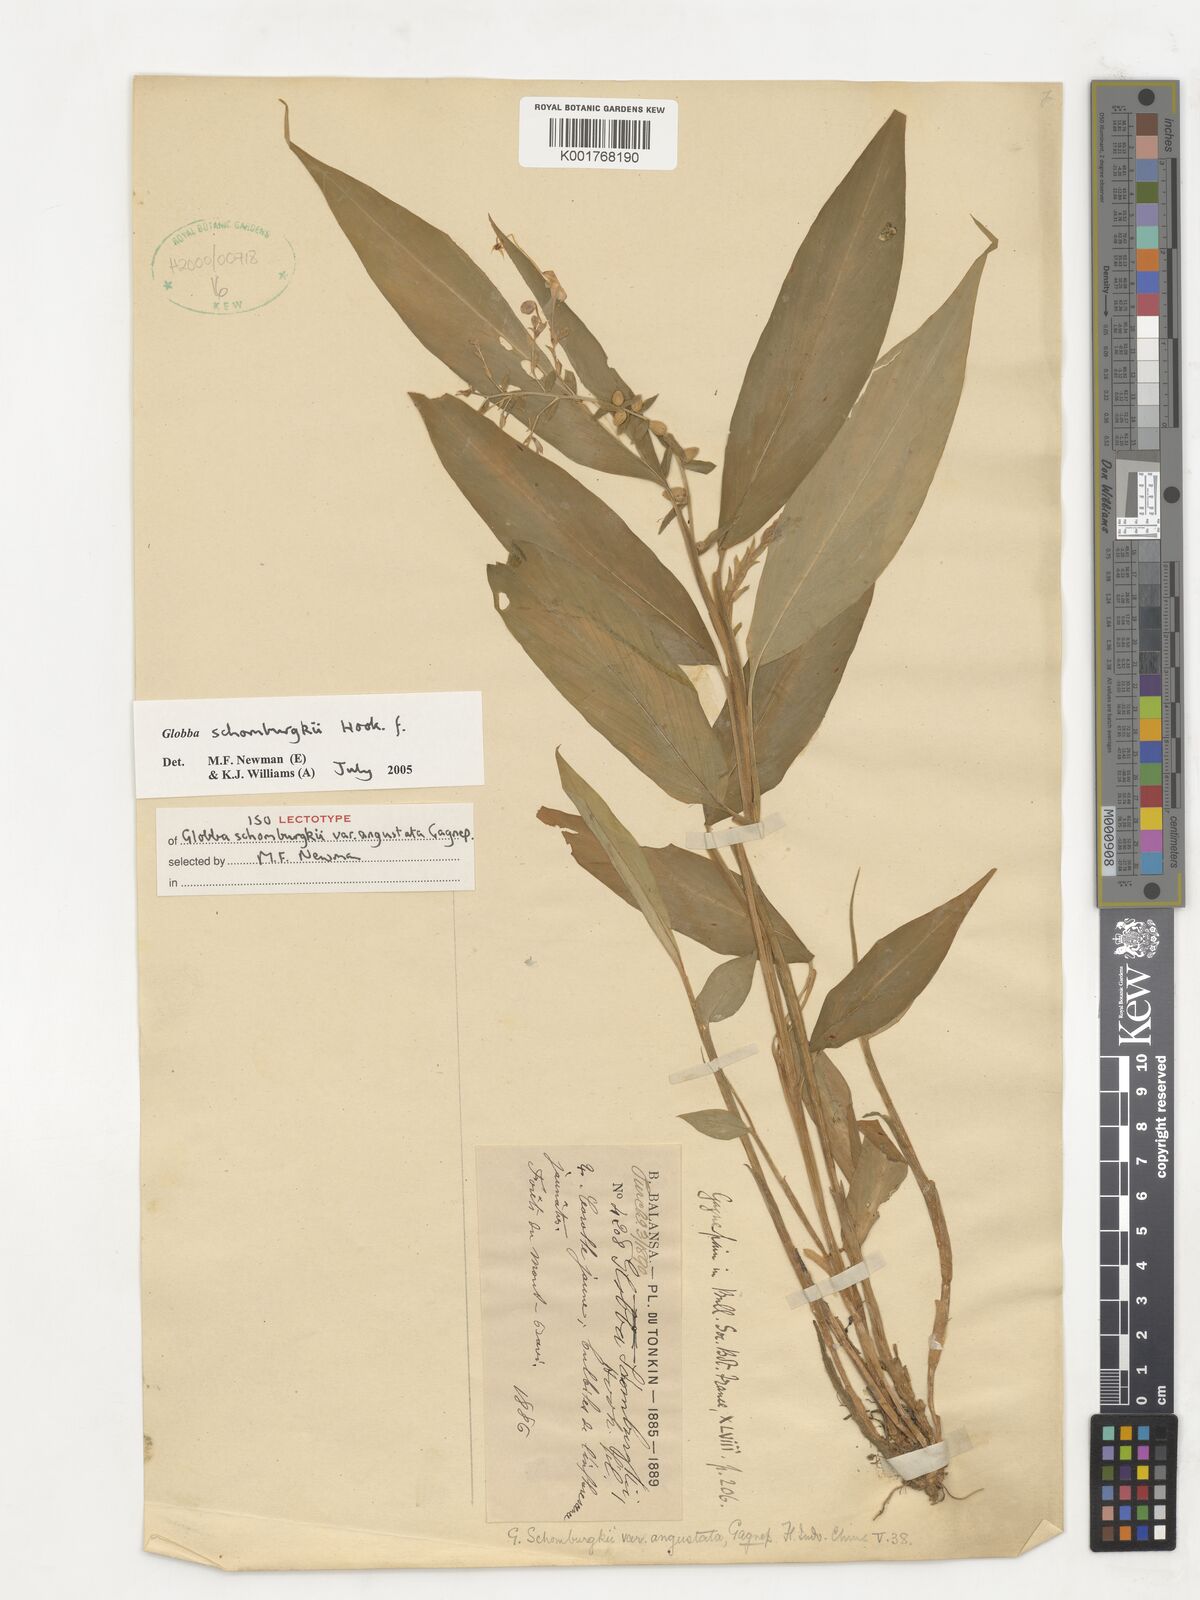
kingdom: Plantae
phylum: Tracheophyta
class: Liliopsida
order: Zingiberales
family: Zingiberaceae
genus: Globba
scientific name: Globba schomburgkii
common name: Dancing girl ginger
